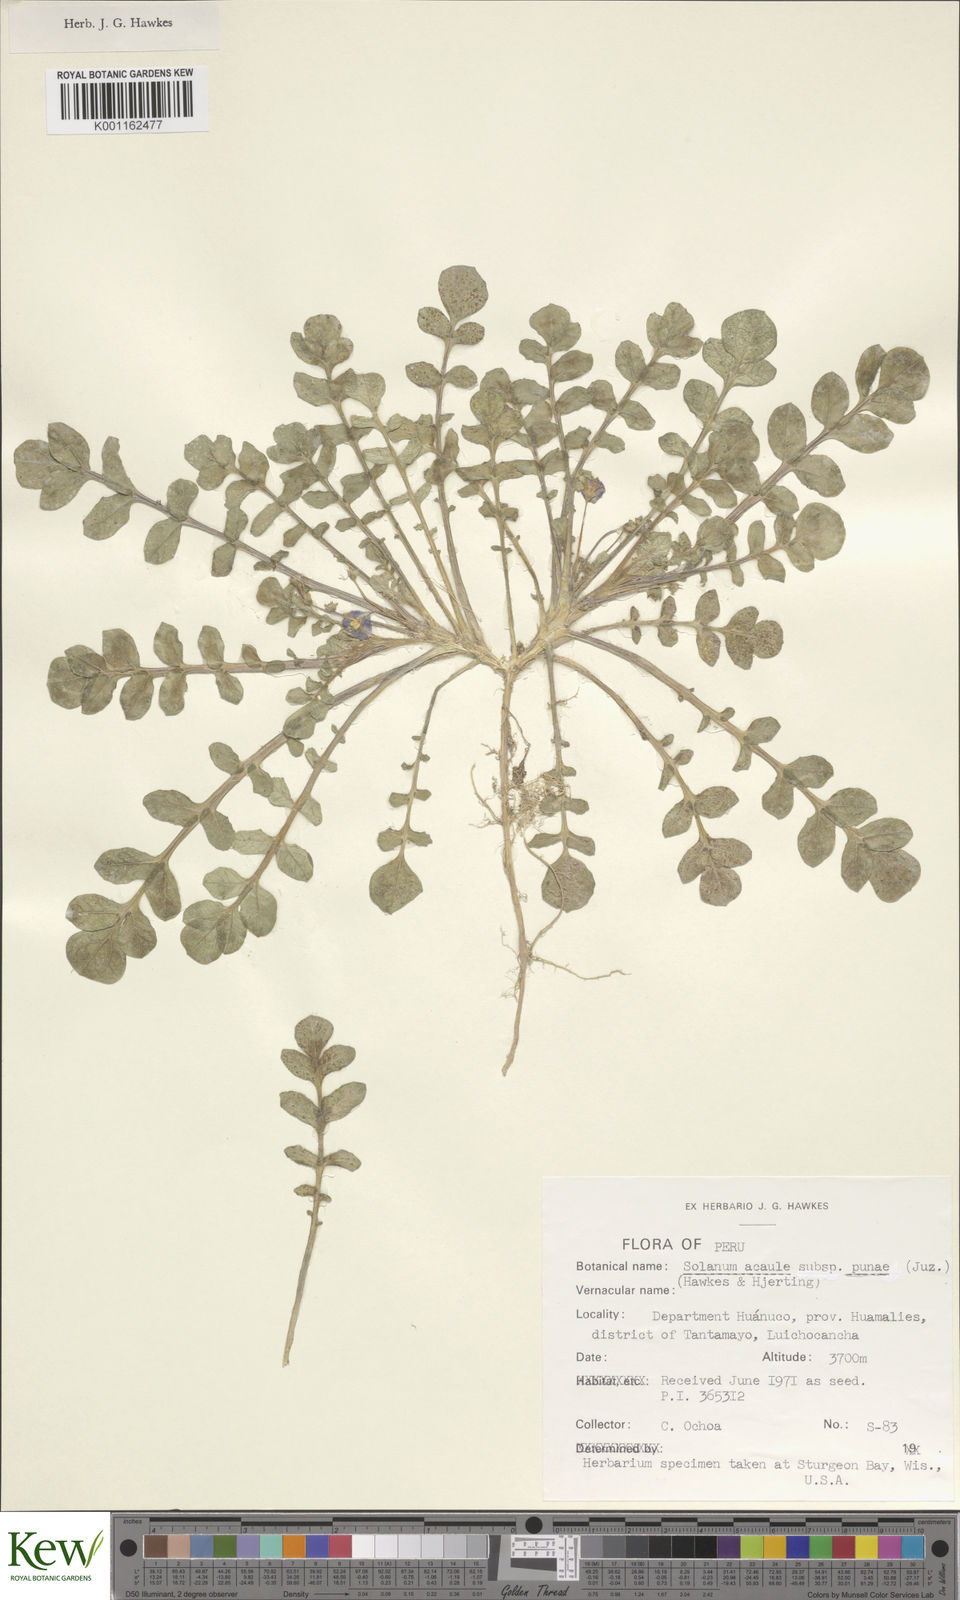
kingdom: Plantae
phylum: Tracheophyta
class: Magnoliopsida
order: Solanales
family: Solanaceae
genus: Solanum
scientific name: Solanum acaule
